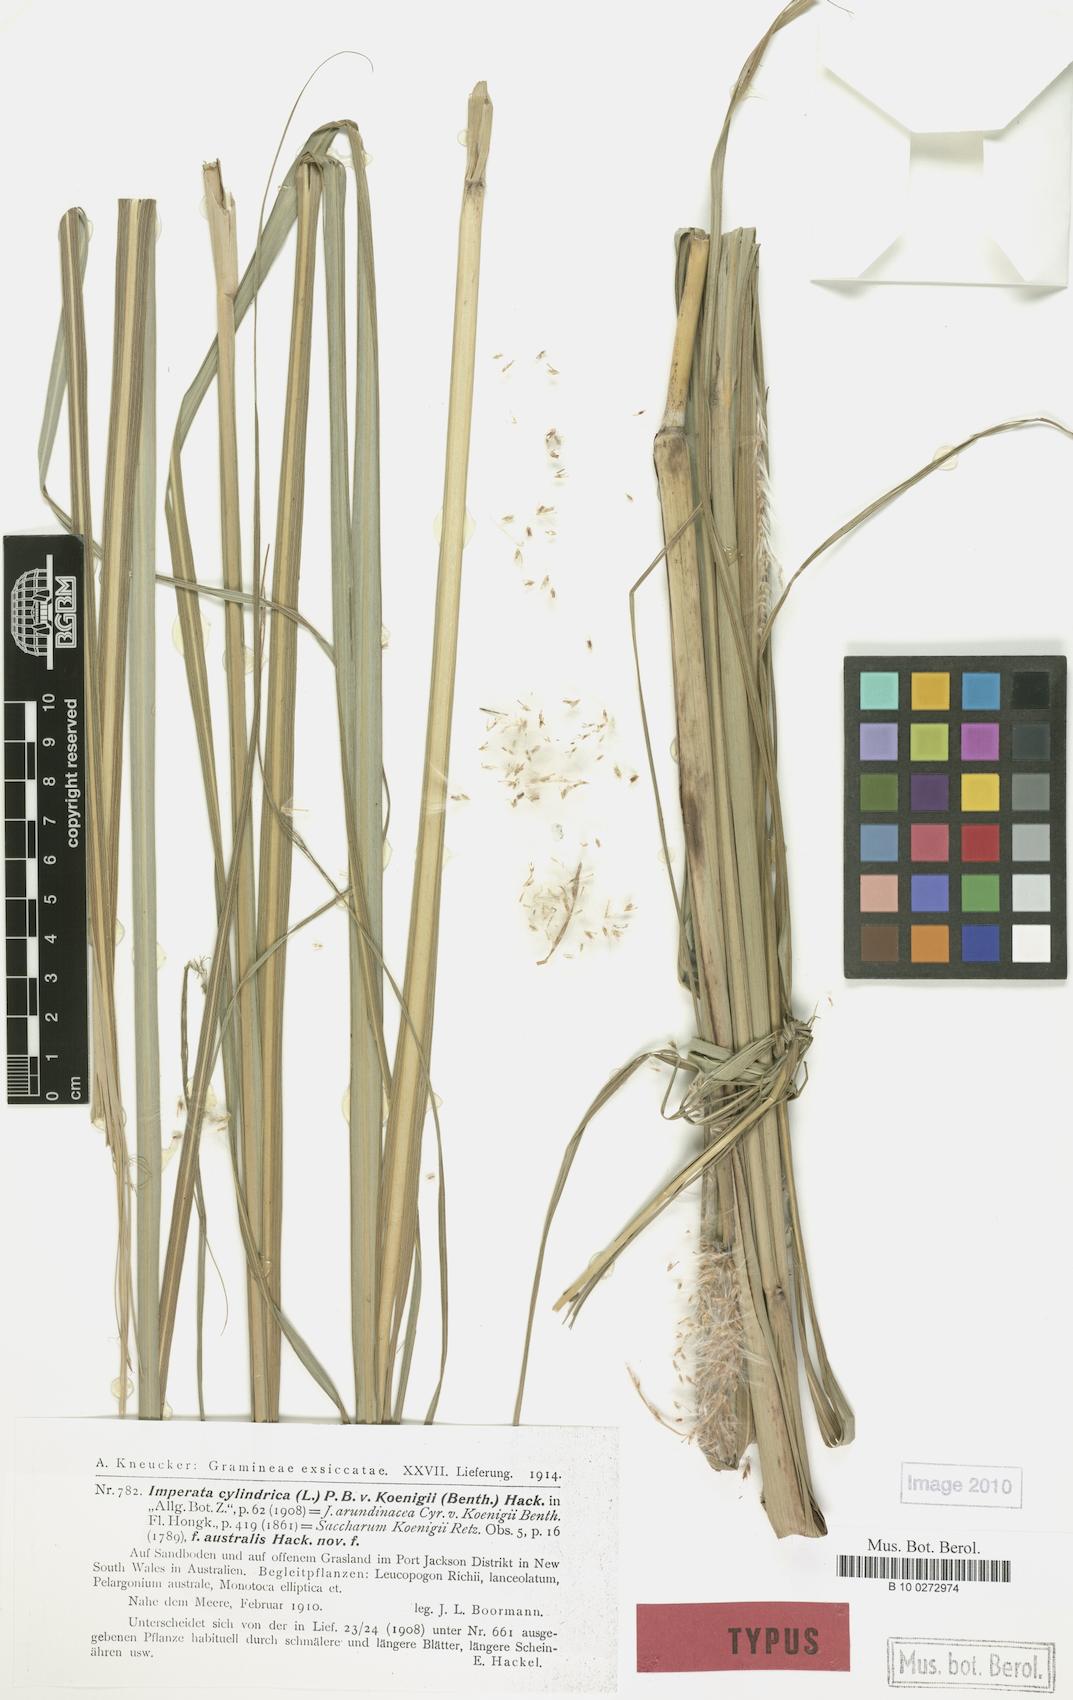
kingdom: Plantae
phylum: Tracheophyta
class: Liliopsida
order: Poales
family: Poaceae
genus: Imperata
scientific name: Imperata cylindrica
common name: Cogongrass
